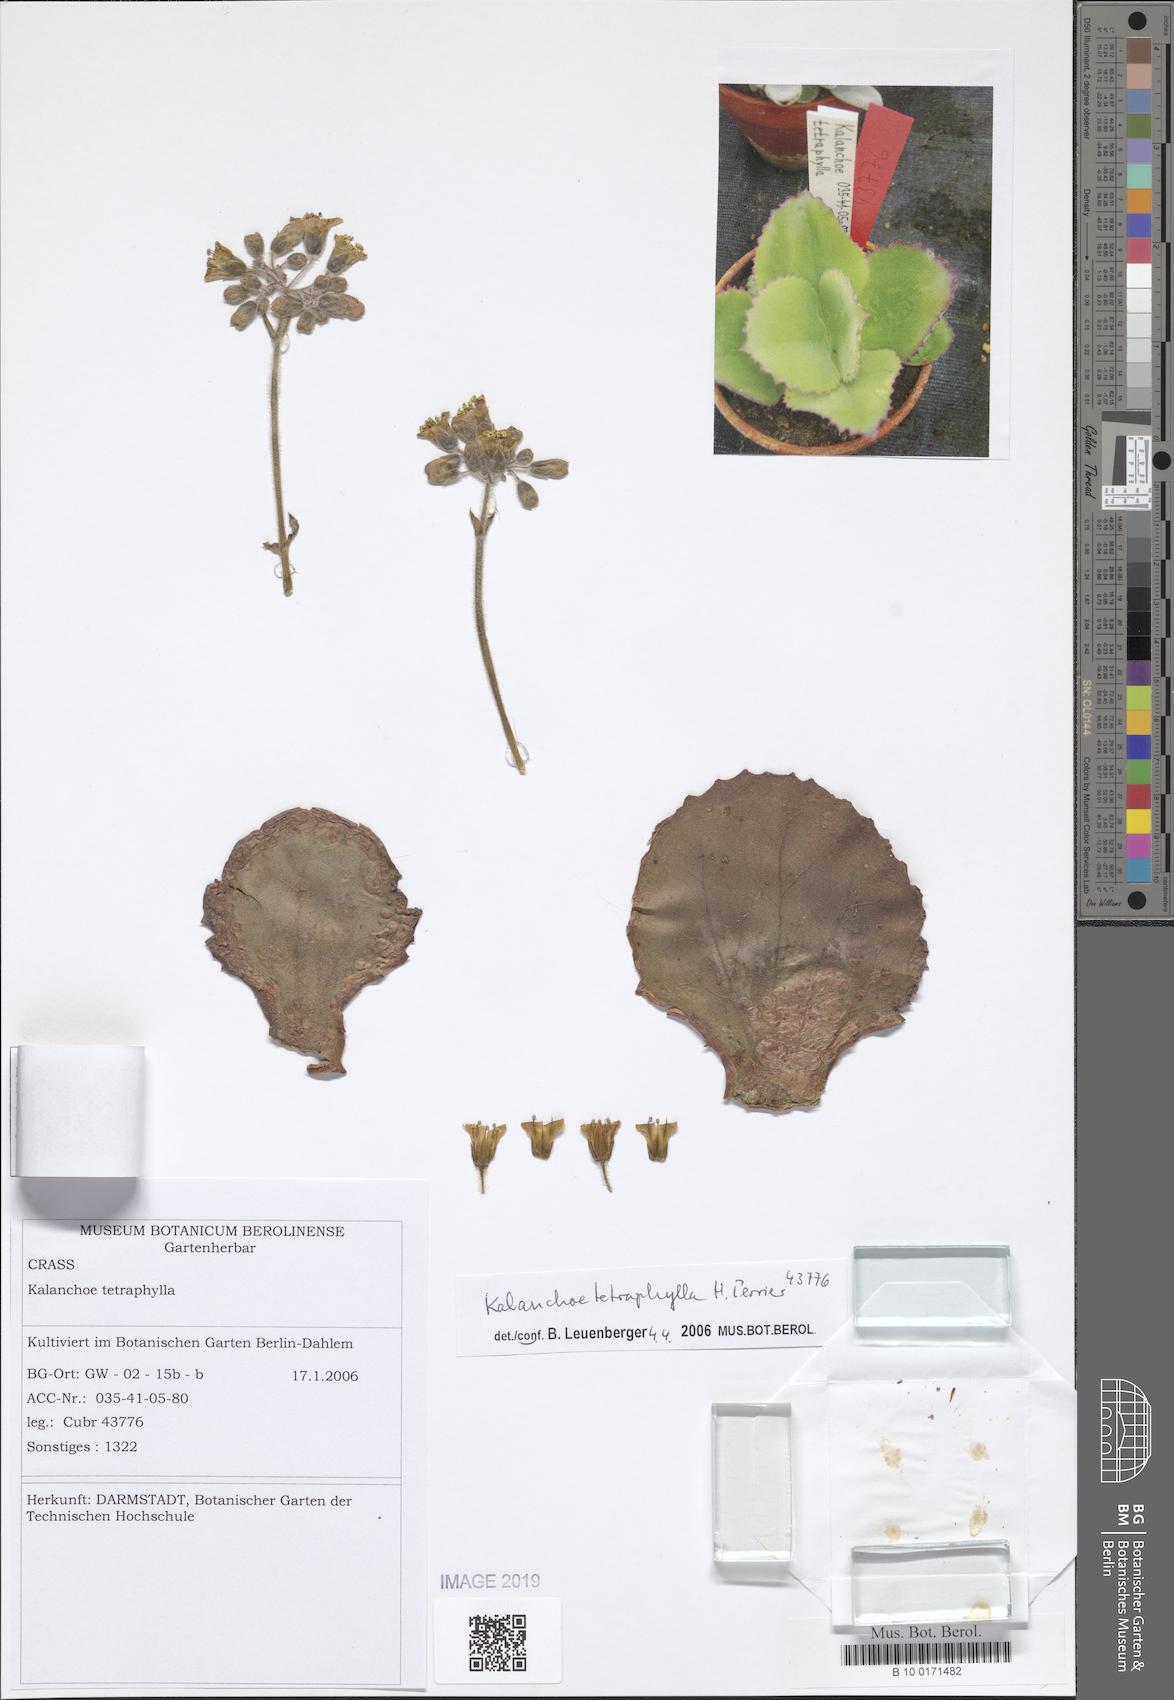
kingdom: Plantae
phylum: Tracheophyta
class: Magnoliopsida
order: Saxifragales
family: Crassulaceae
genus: Kalanchoe
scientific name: Kalanchoe tetraphylla
